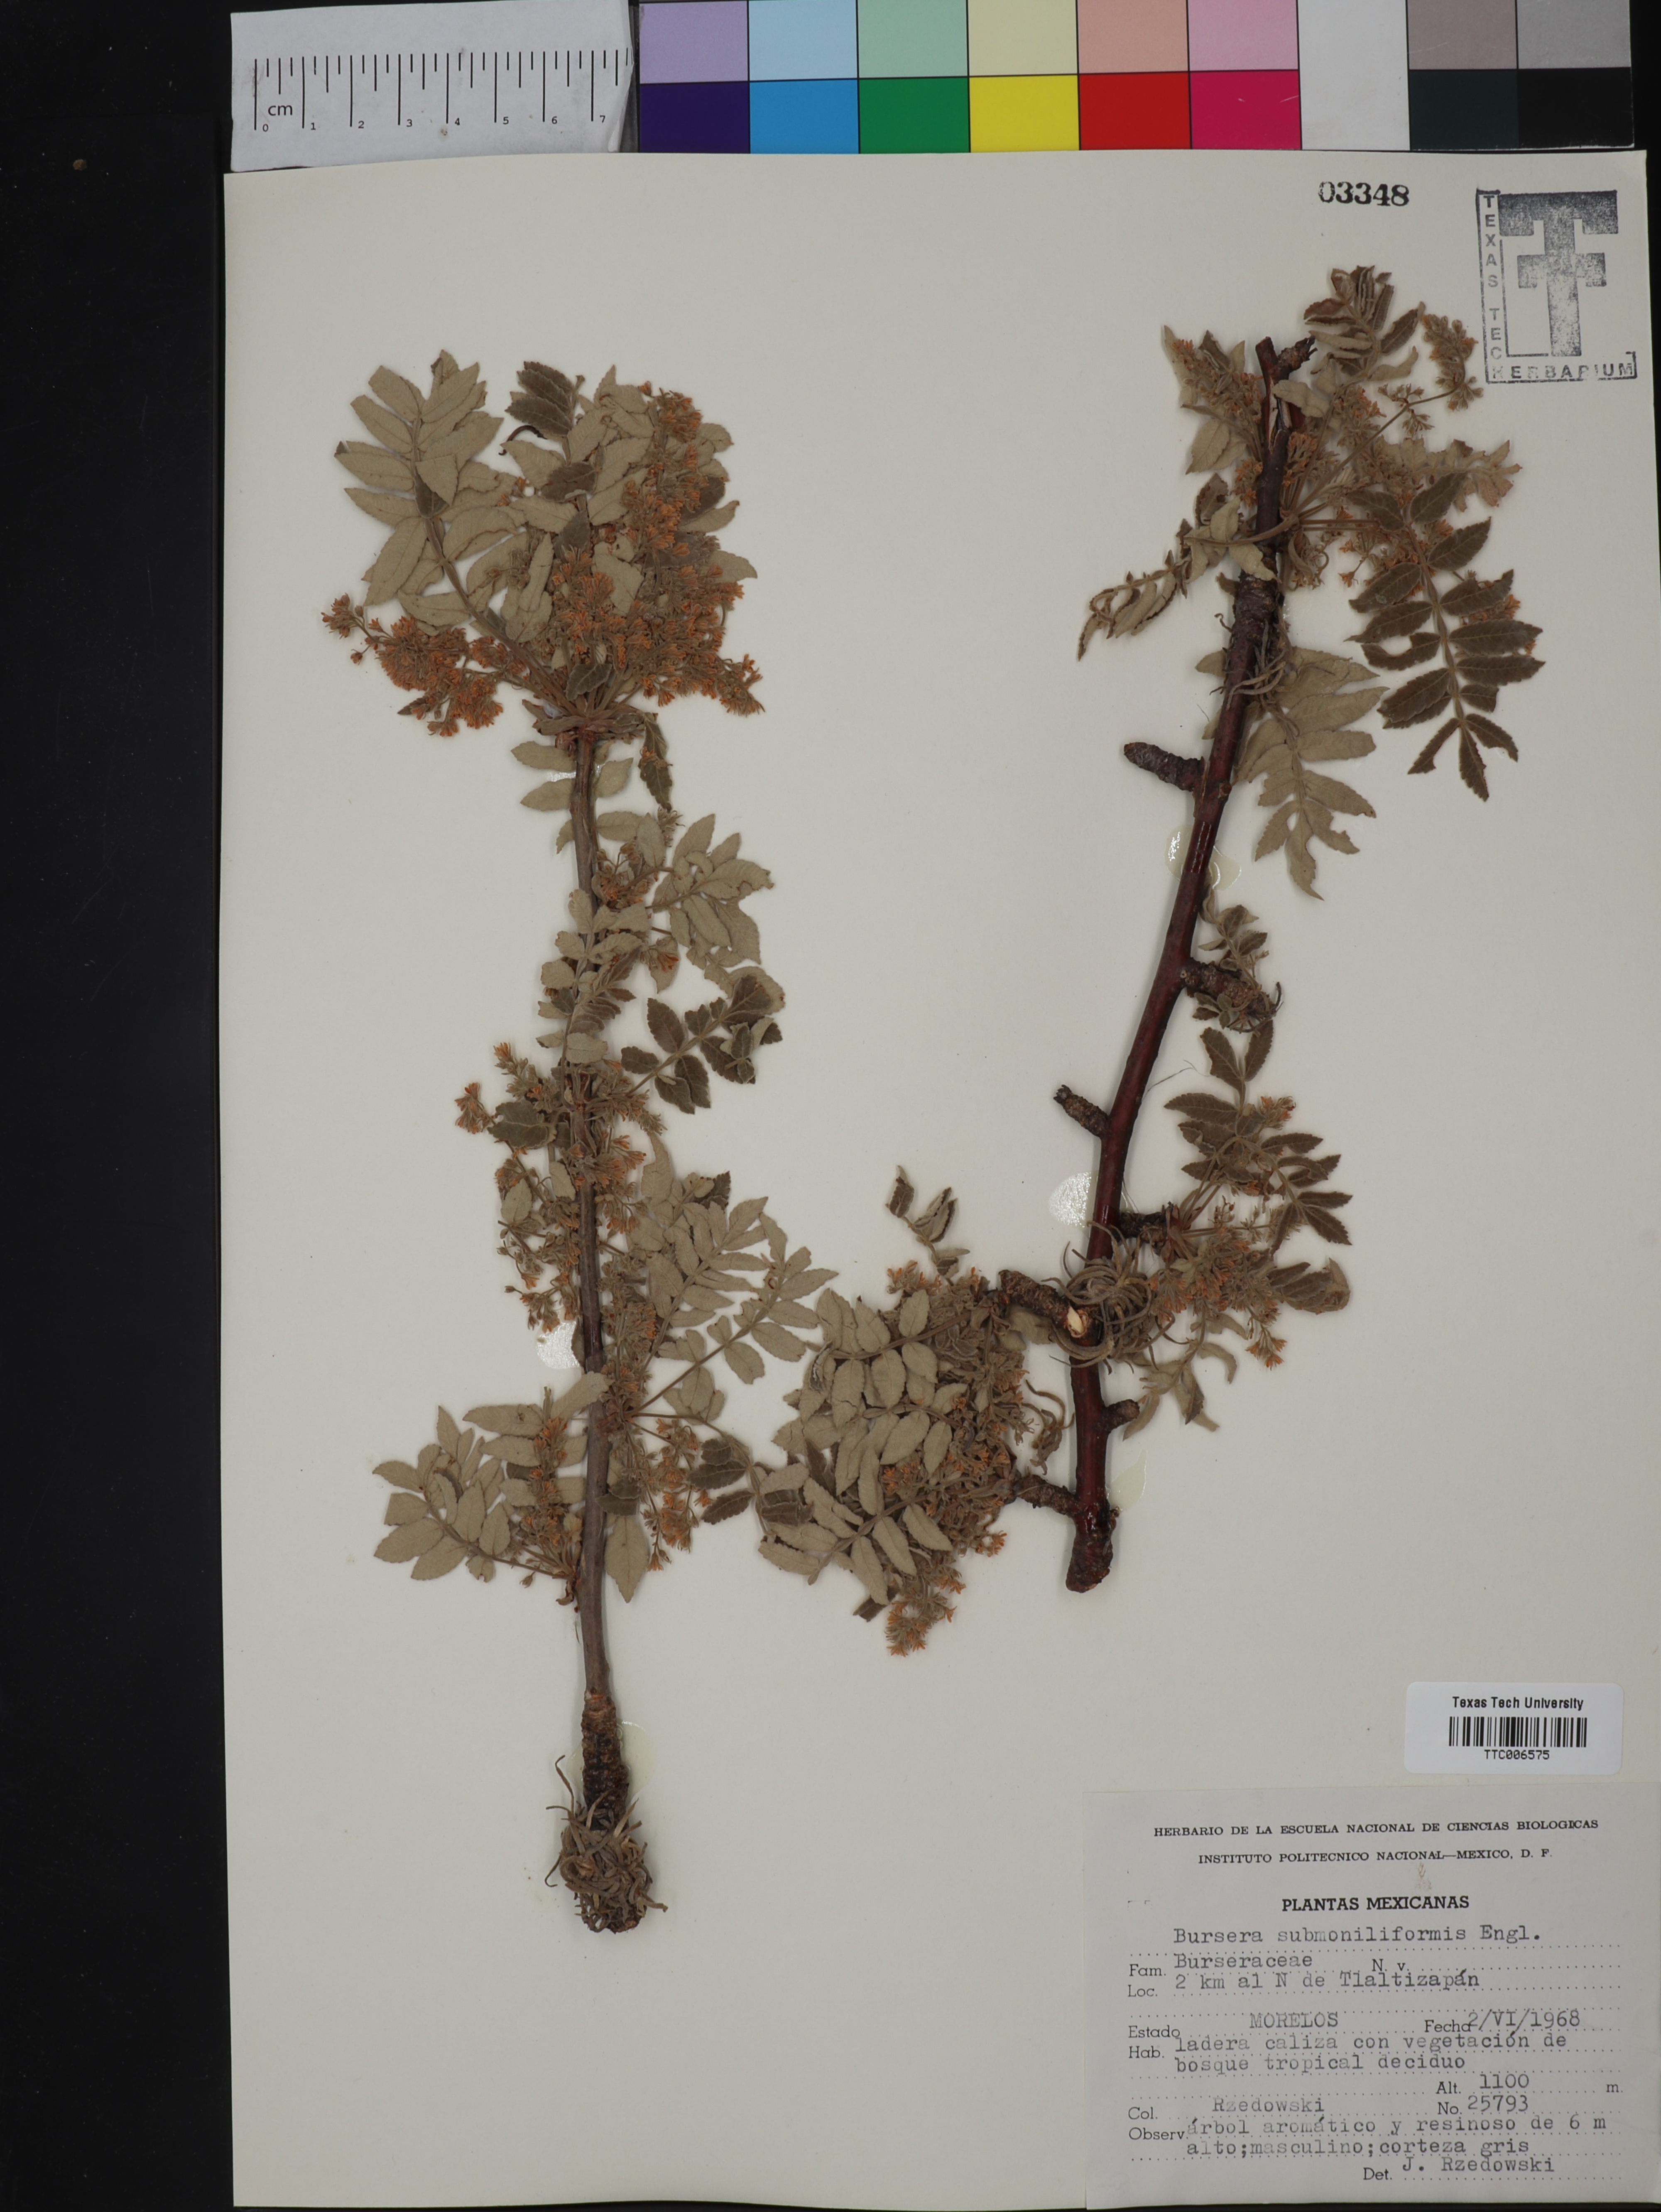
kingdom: Plantae
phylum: Tracheophyta
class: Magnoliopsida
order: Sapindales
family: Burseraceae
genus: Bursera
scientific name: Bursera submoniliformis
